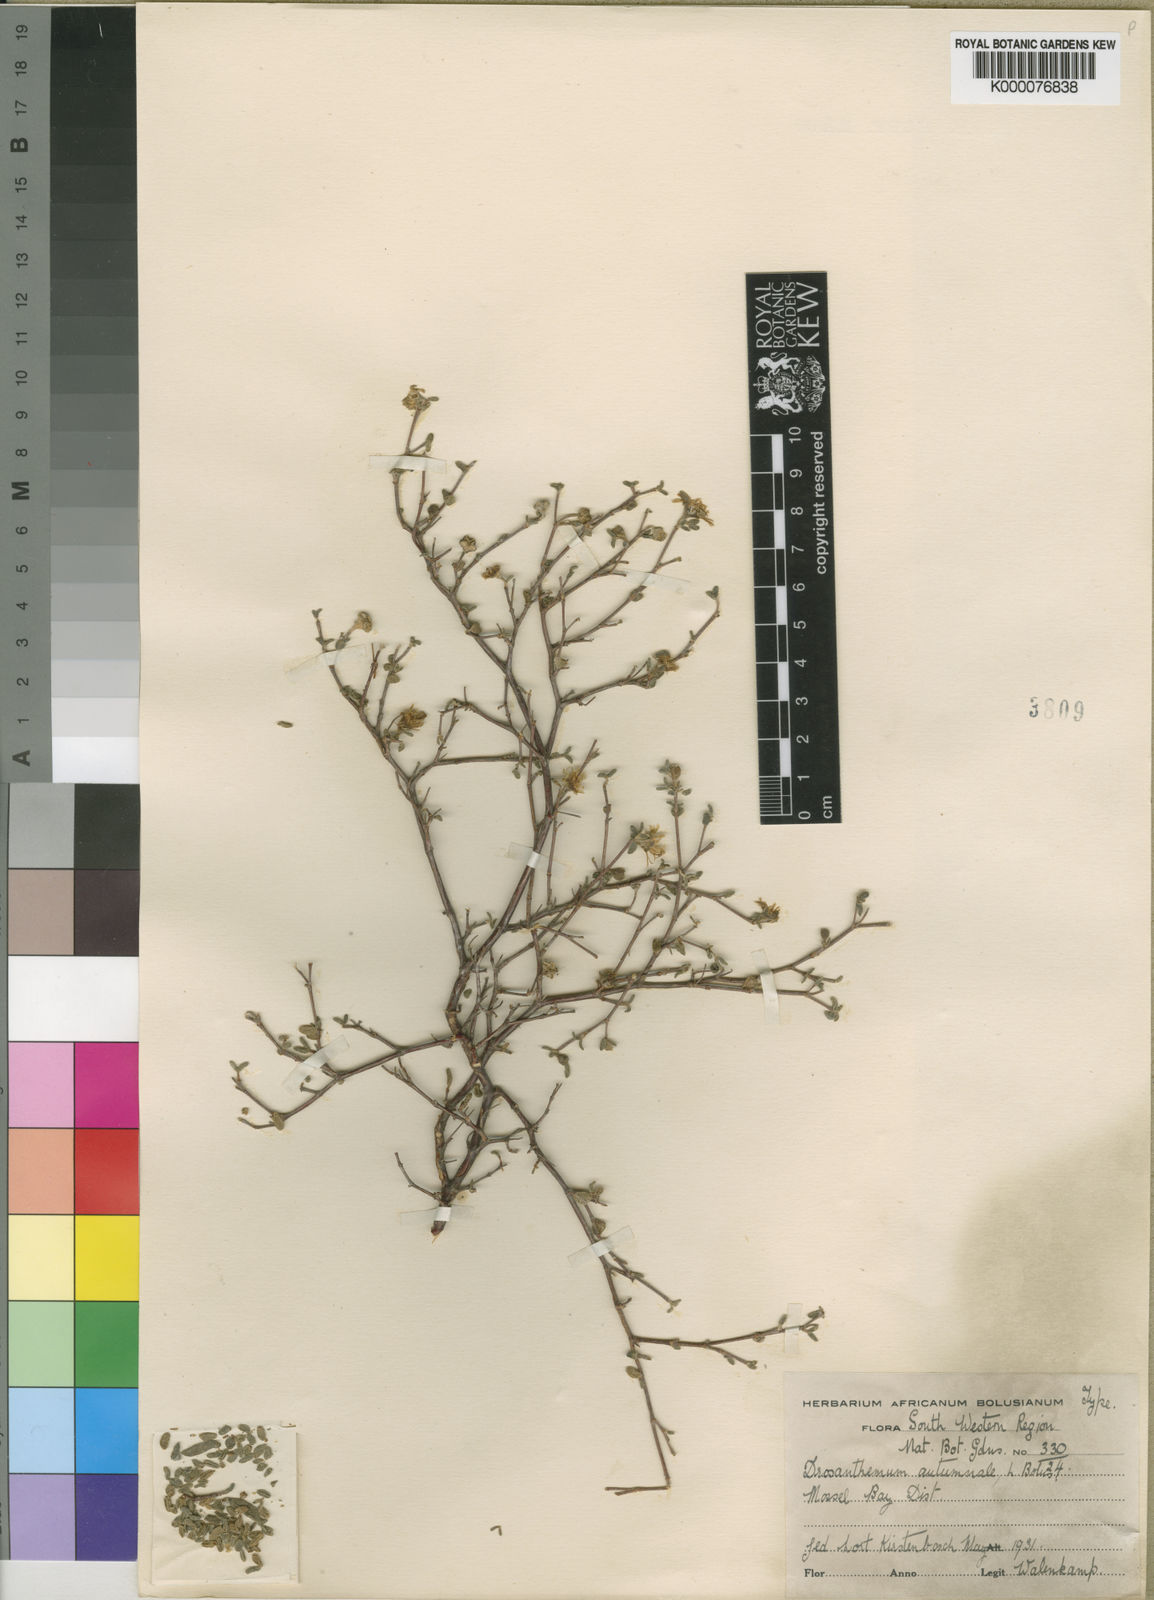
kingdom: Plantae
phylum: Tracheophyta
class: Magnoliopsida
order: Caryophyllales
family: Aizoaceae
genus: Drosanthemum
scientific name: Drosanthemum autumnale
